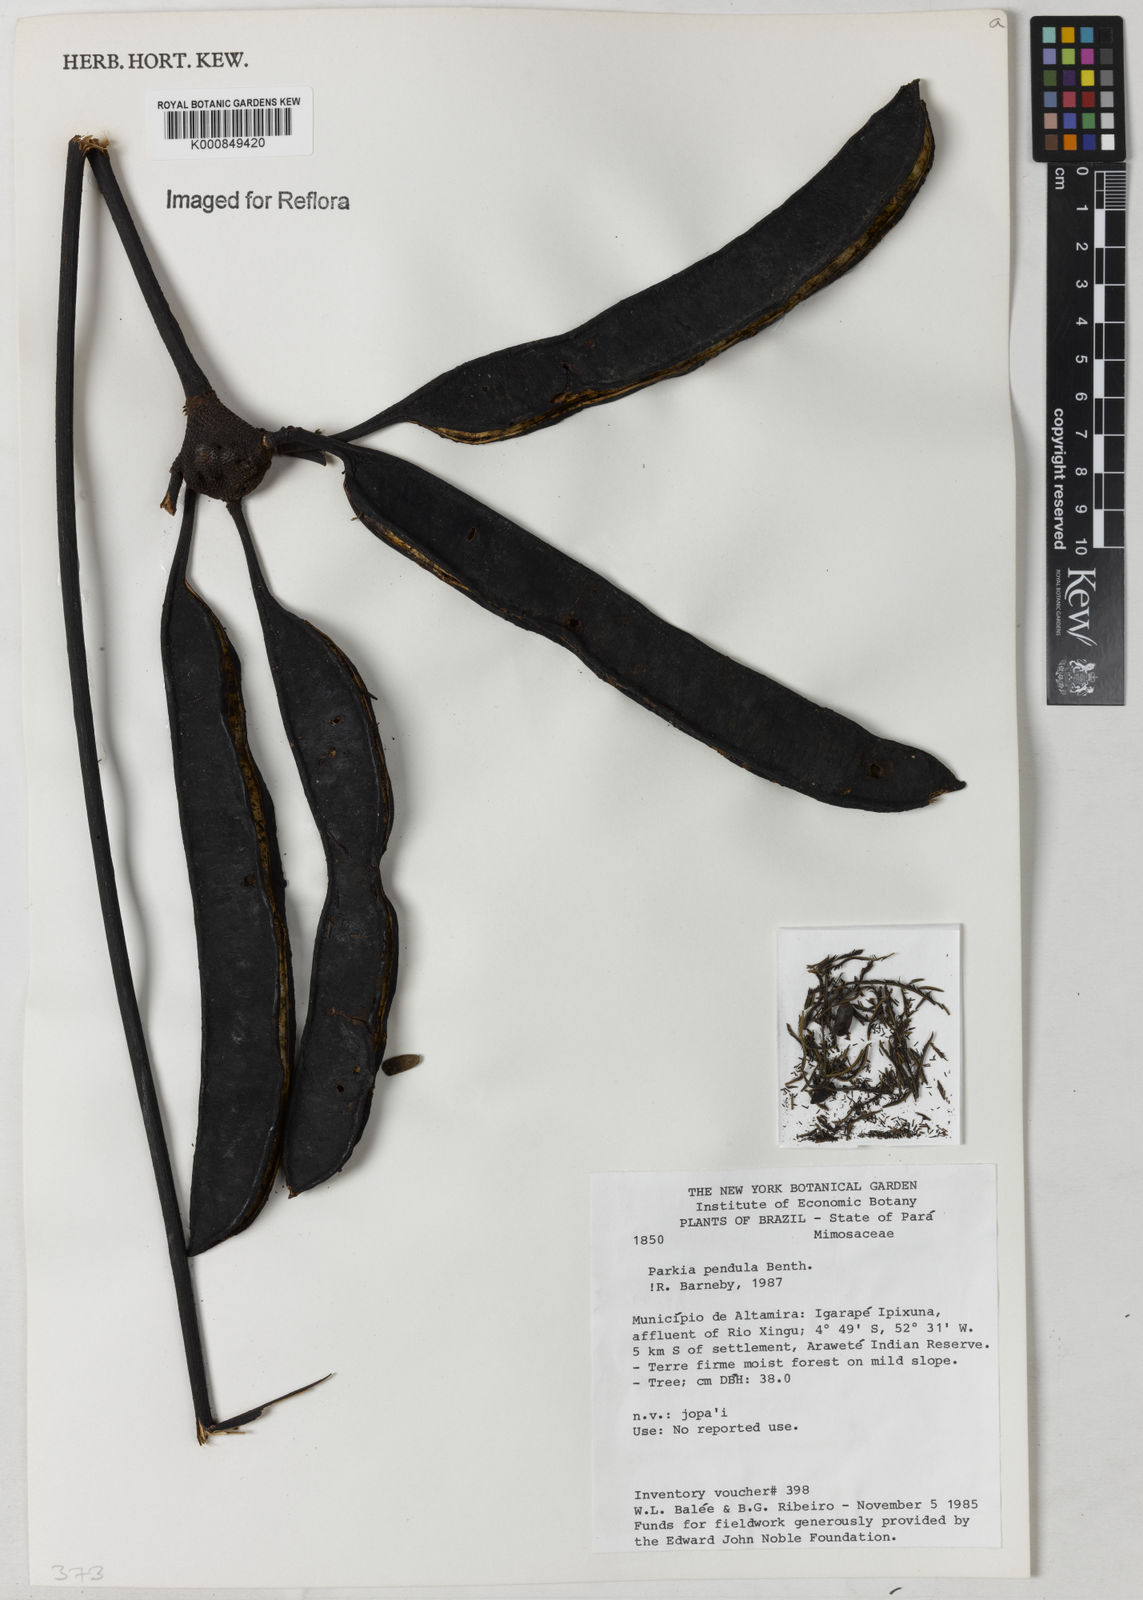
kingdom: Plantae
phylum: Tracheophyta
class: Magnoliopsida
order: Fabales
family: Fabaceae
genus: Parkia
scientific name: Parkia
